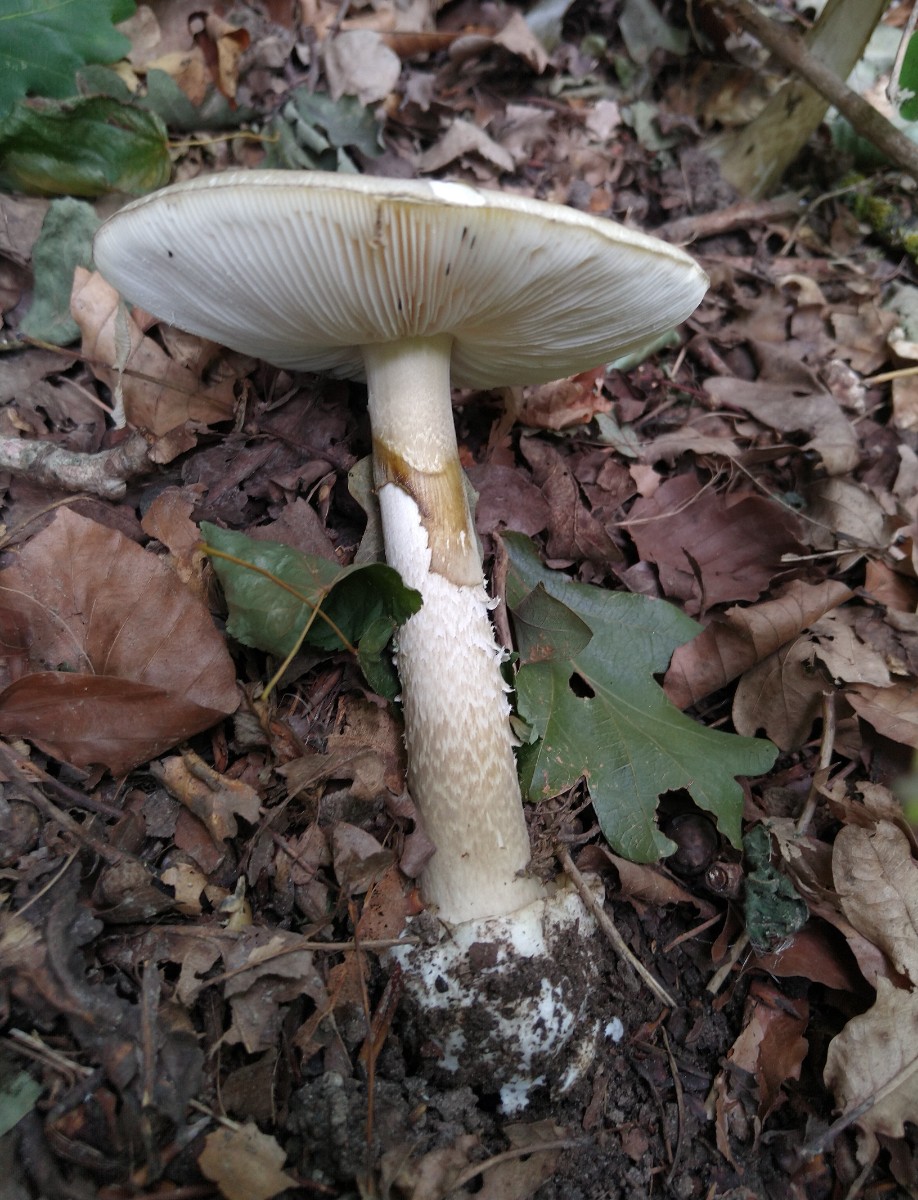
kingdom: Fungi
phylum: Basidiomycota
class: Agaricomycetes
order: Agaricales
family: Amanitaceae
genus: Amanita
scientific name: Amanita phalloides
